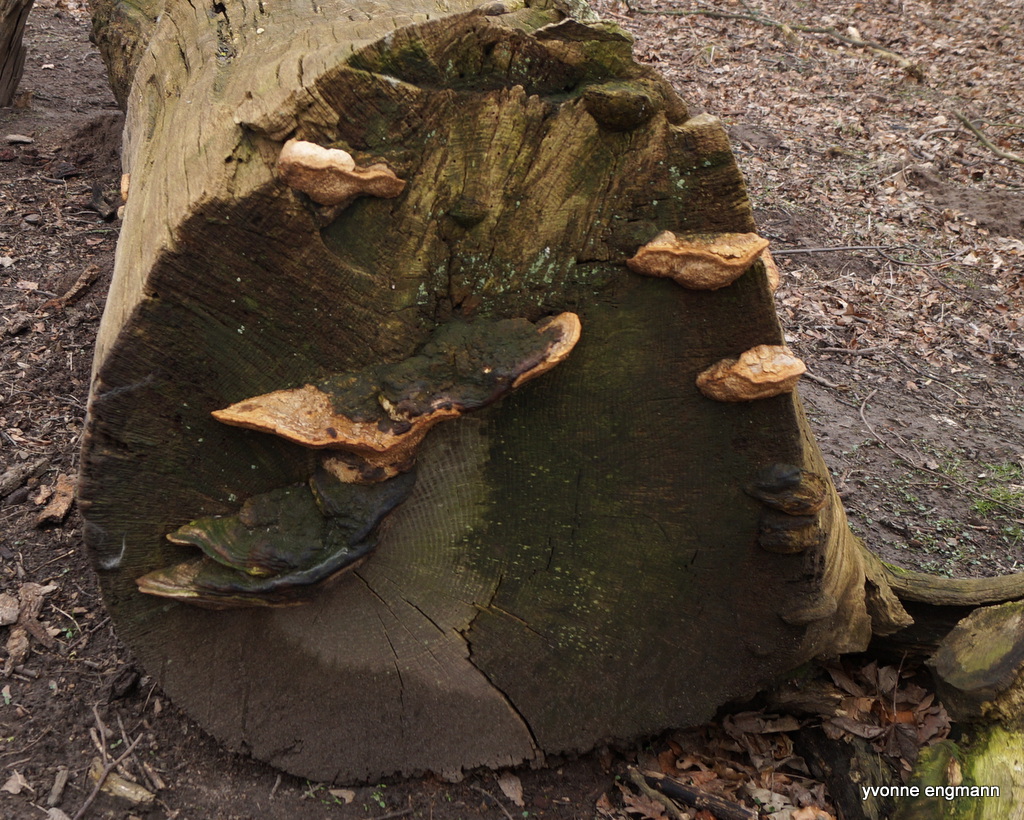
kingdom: Fungi
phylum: Basidiomycota
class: Agaricomycetes
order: Polyporales
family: Fomitopsidaceae
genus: Daedalea
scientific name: Daedalea quercina
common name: ege-labyrintsvamp
